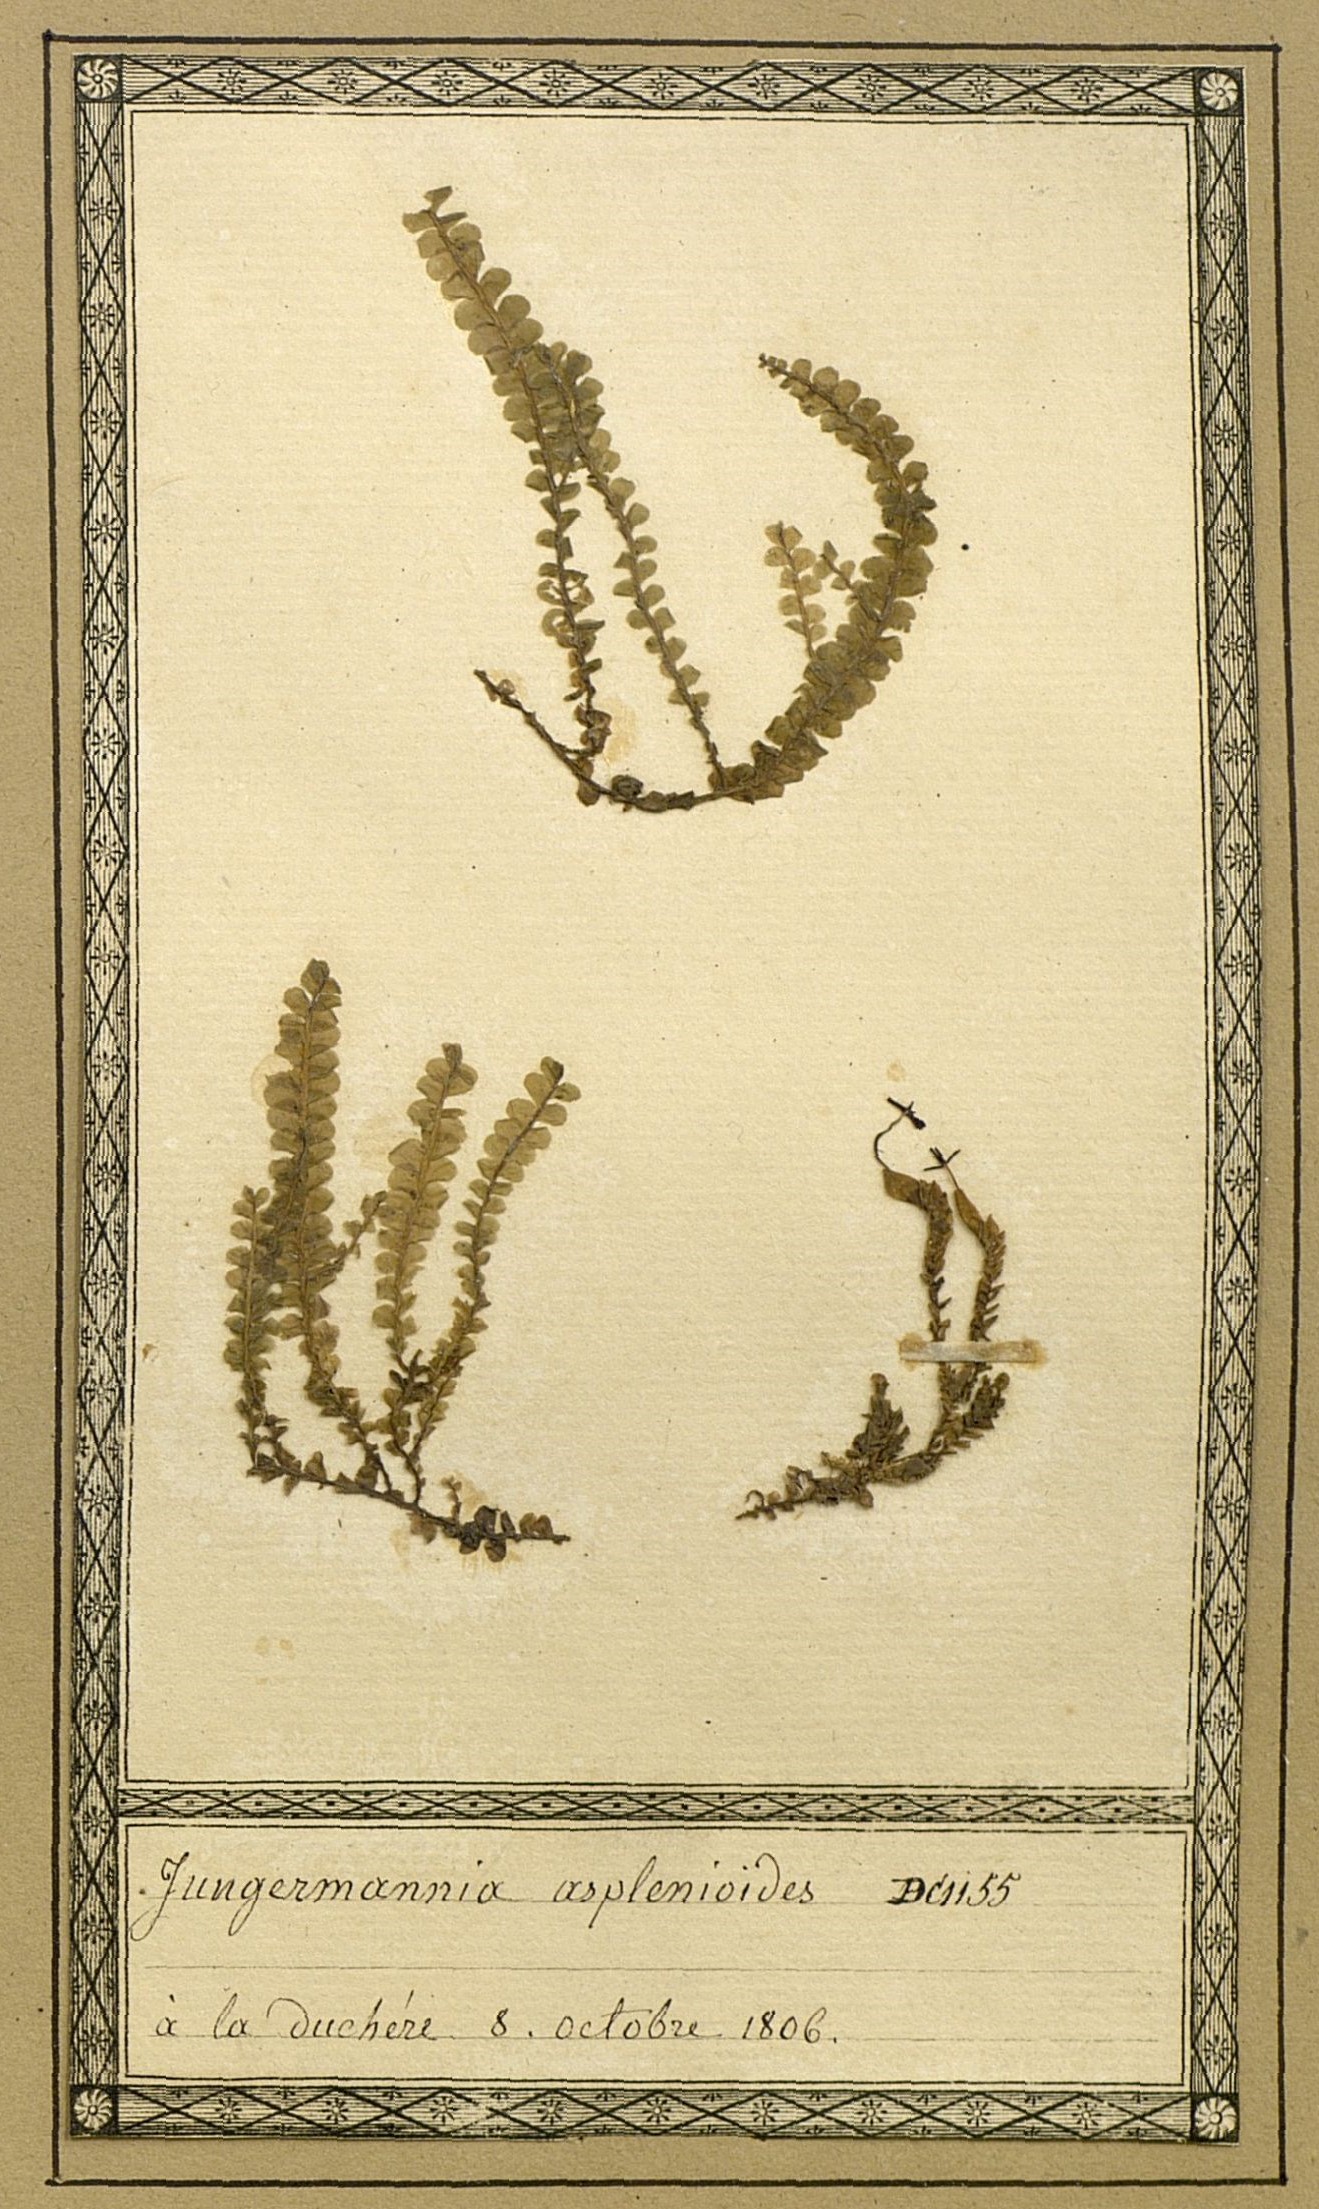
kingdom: Plantae
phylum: Marchantiophyta
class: Jungermanniopsida
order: Jungermanniales
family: Plagiochilaceae
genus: Plagiochila
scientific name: Plagiochila asplenioides
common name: Greater featherwort
